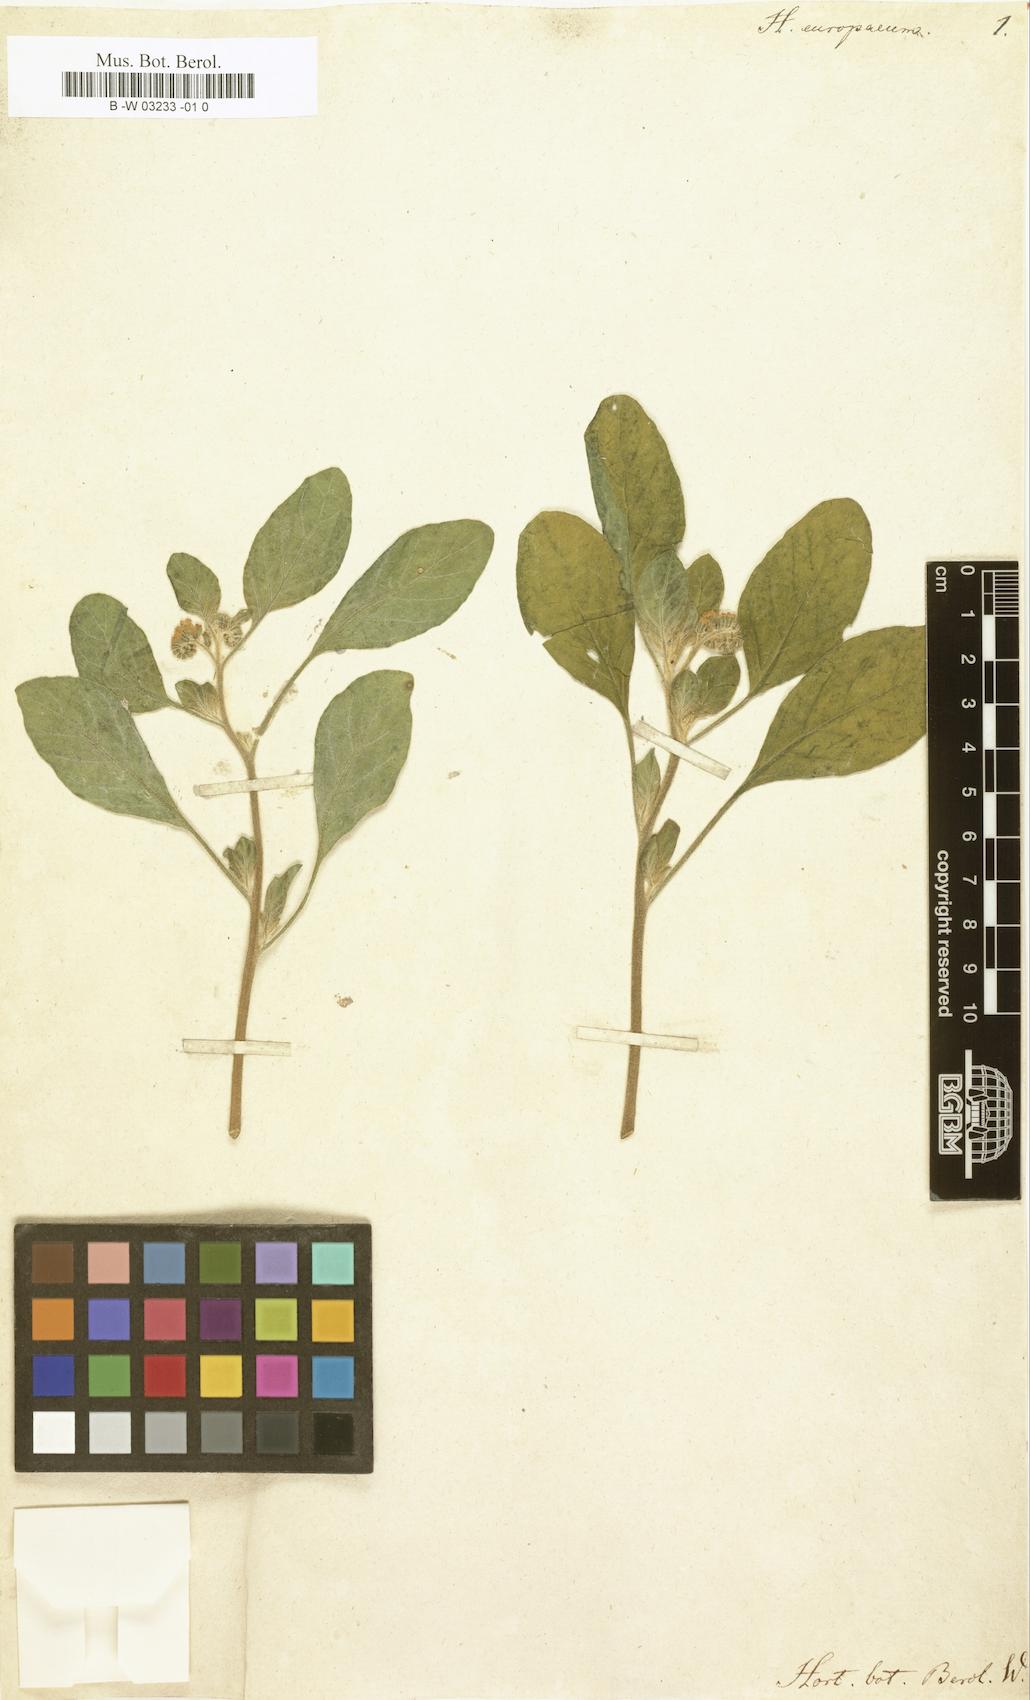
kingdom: Plantae
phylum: Tracheophyta
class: Magnoliopsida
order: Boraginales
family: Heliotropiaceae
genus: Heliotropium
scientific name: Heliotropium europaeum
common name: European heliotrope
